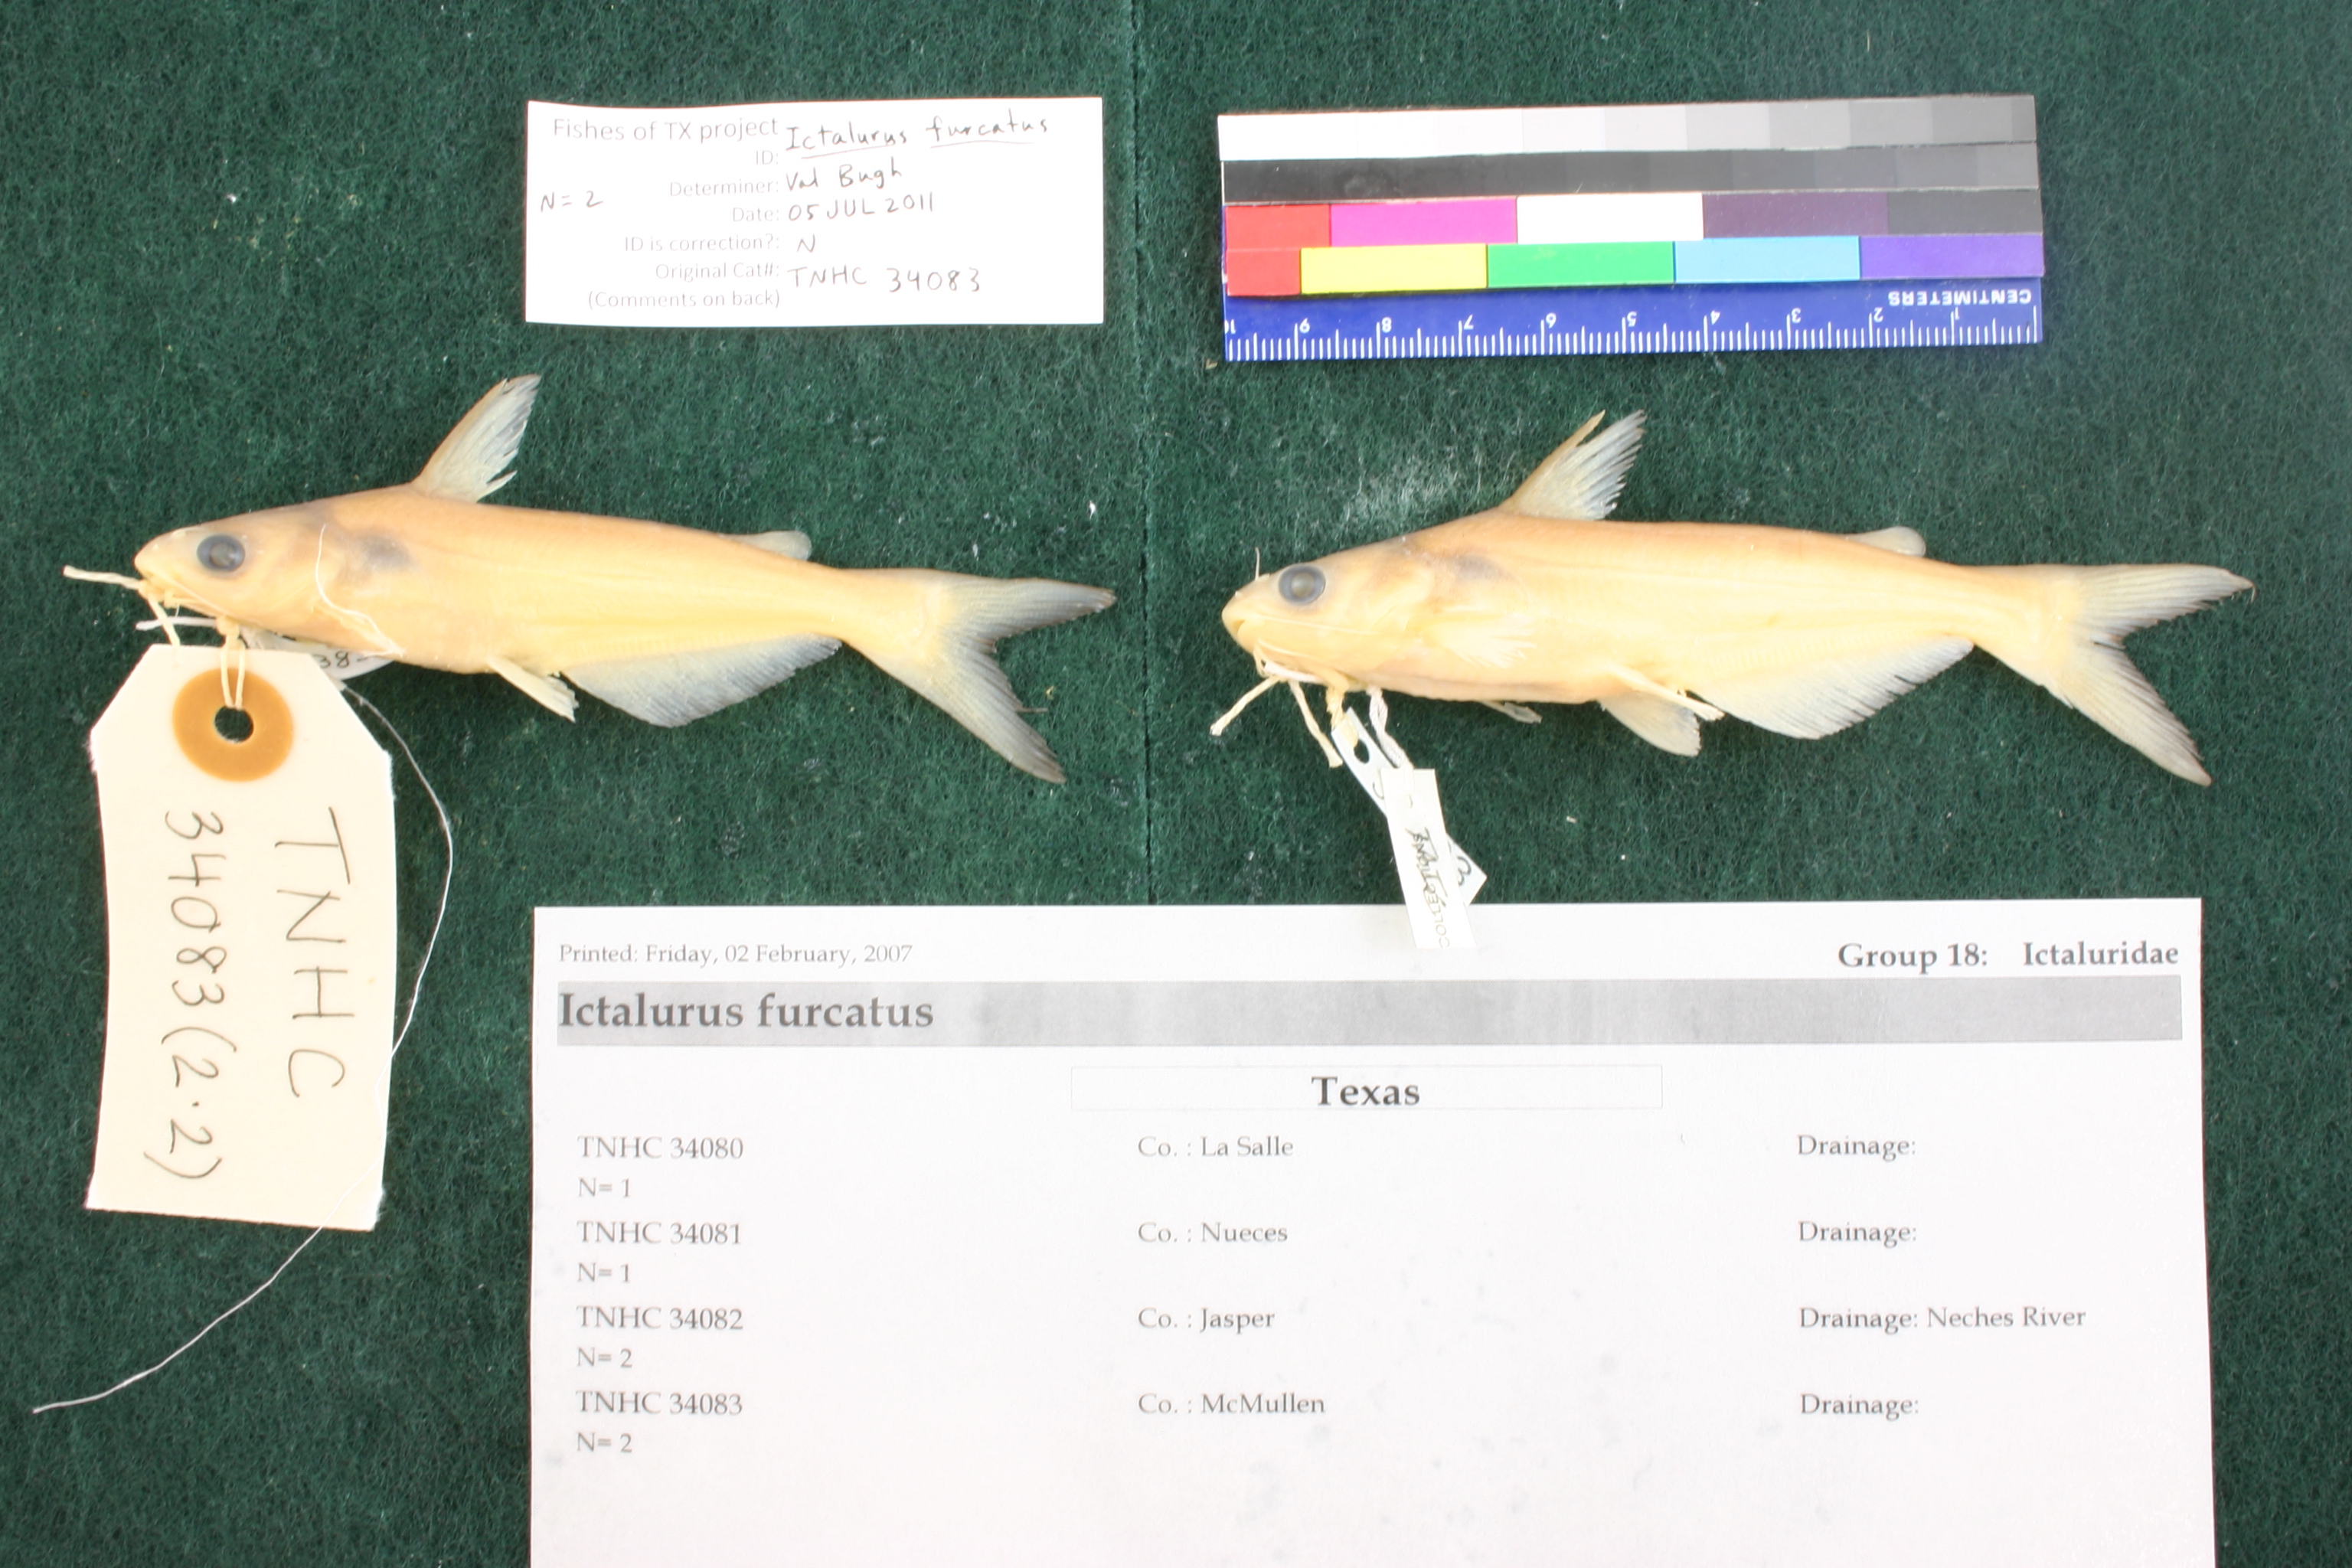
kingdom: Animalia
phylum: Chordata
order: Siluriformes
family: Ictaluridae
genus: Ictalurus
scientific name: Ictalurus furcatus
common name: Blue catfish
